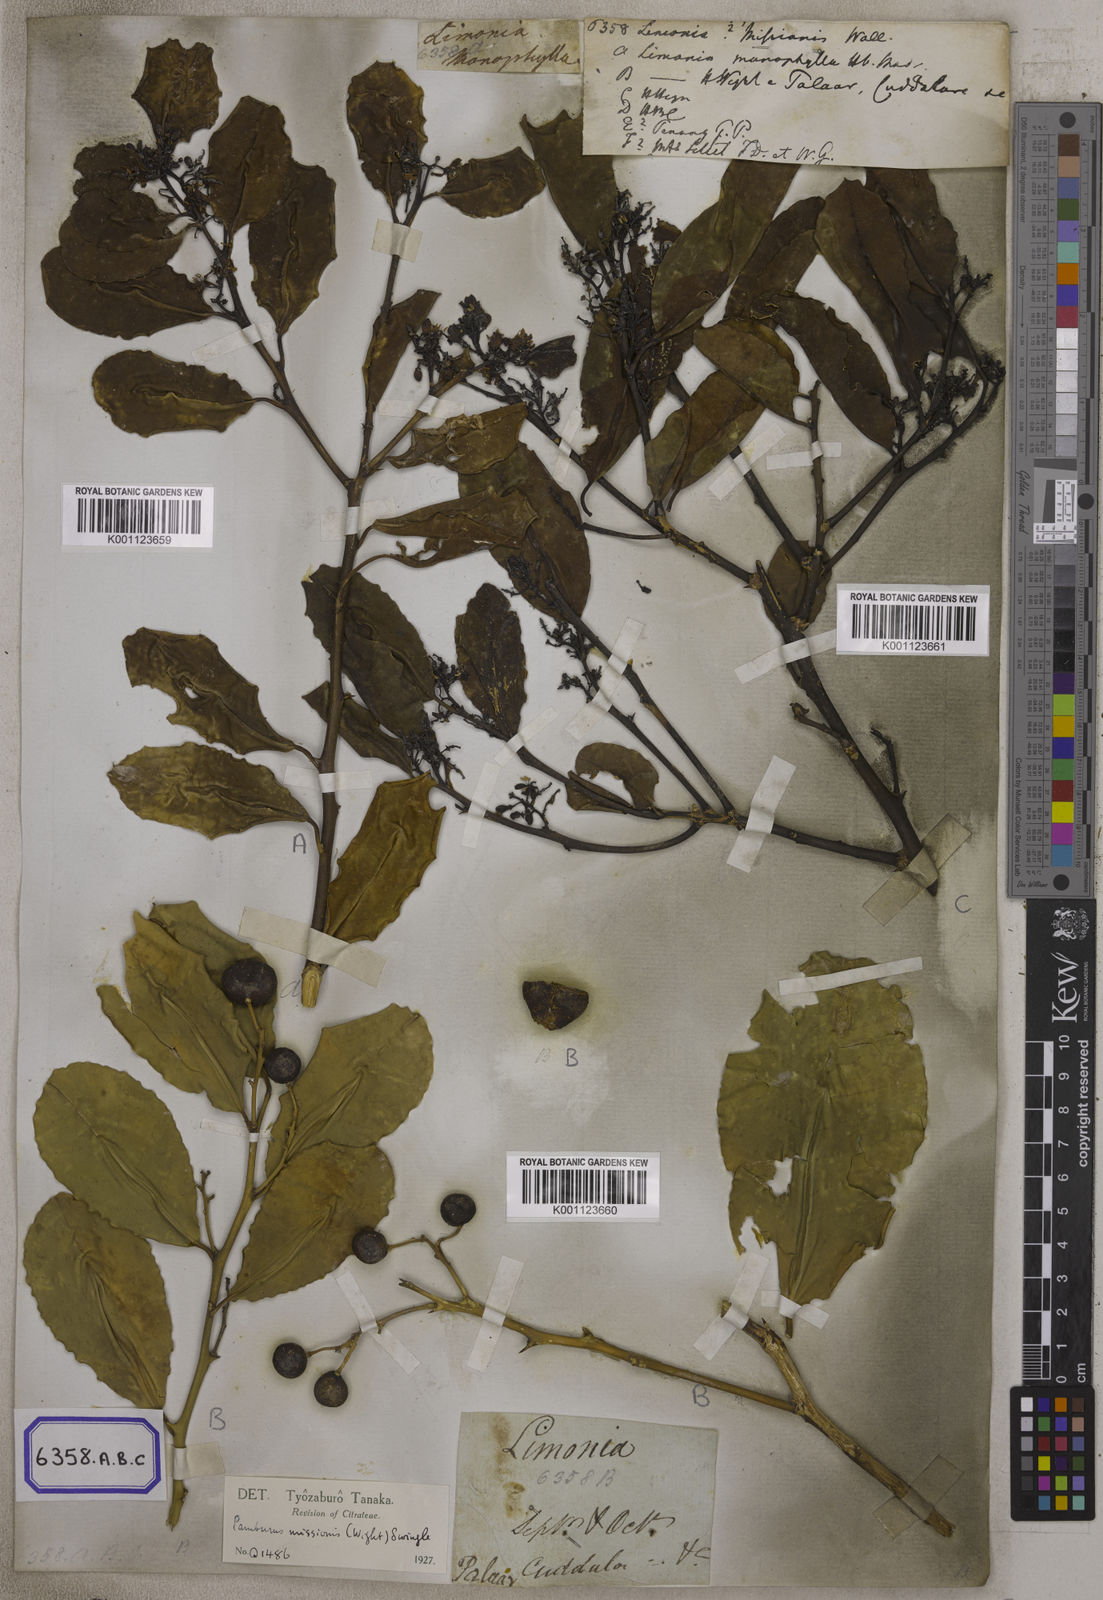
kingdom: Plantae
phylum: Tracheophyta
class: Magnoliopsida
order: Sapindales
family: Rutaceae
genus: Limonia
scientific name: Limonia
